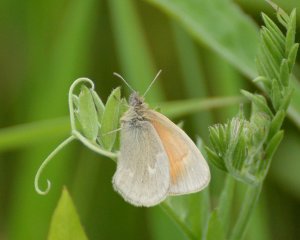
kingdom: Animalia
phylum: Arthropoda
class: Insecta
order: Lepidoptera
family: Nymphalidae
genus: Coenonympha
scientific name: Coenonympha tullia
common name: Large Heath
